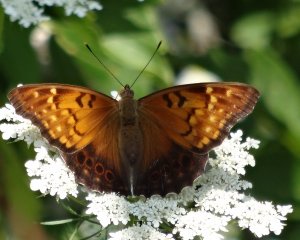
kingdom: Animalia
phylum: Arthropoda
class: Insecta
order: Lepidoptera
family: Nymphalidae
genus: Asterocampa
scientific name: Asterocampa clyton
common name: Tawny Emperor
